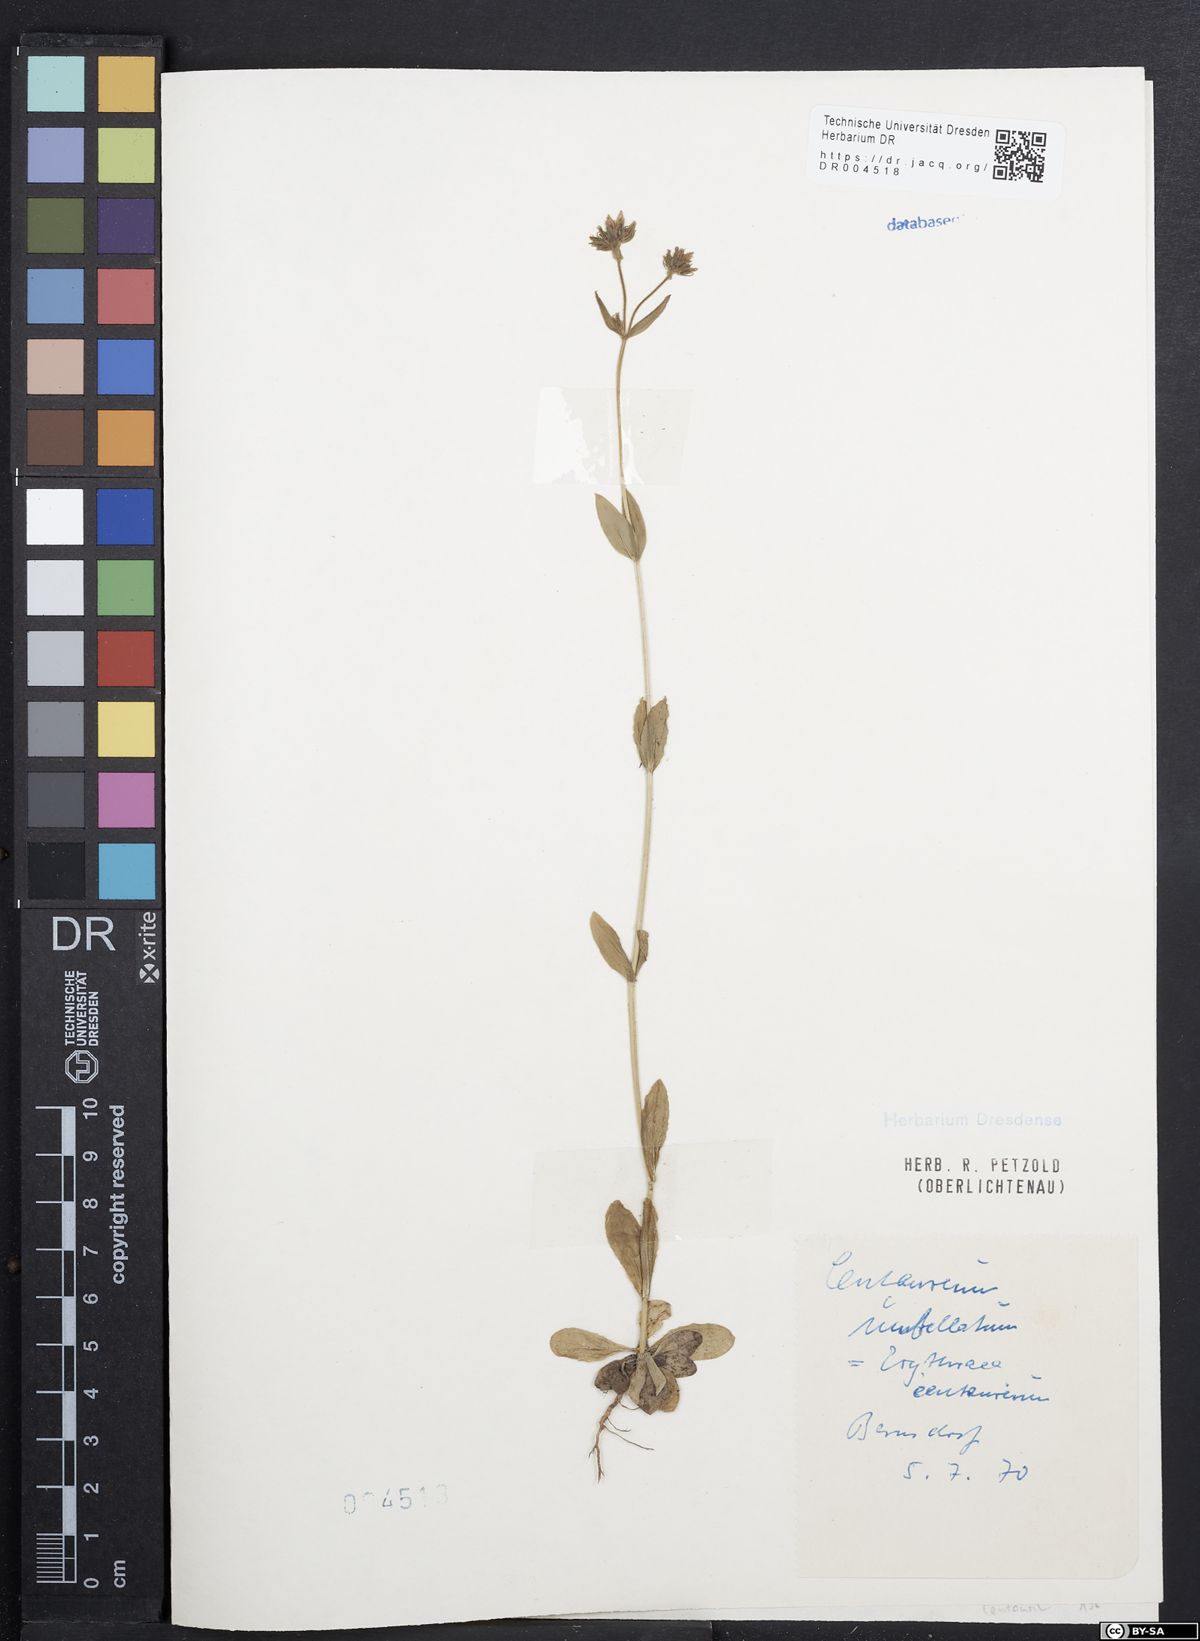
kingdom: Plantae
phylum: Tracheophyta
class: Magnoliopsida
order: Gentianales
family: Gentianaceae
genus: Centaurium
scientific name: Centaurium erythraea
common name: Common centaury
